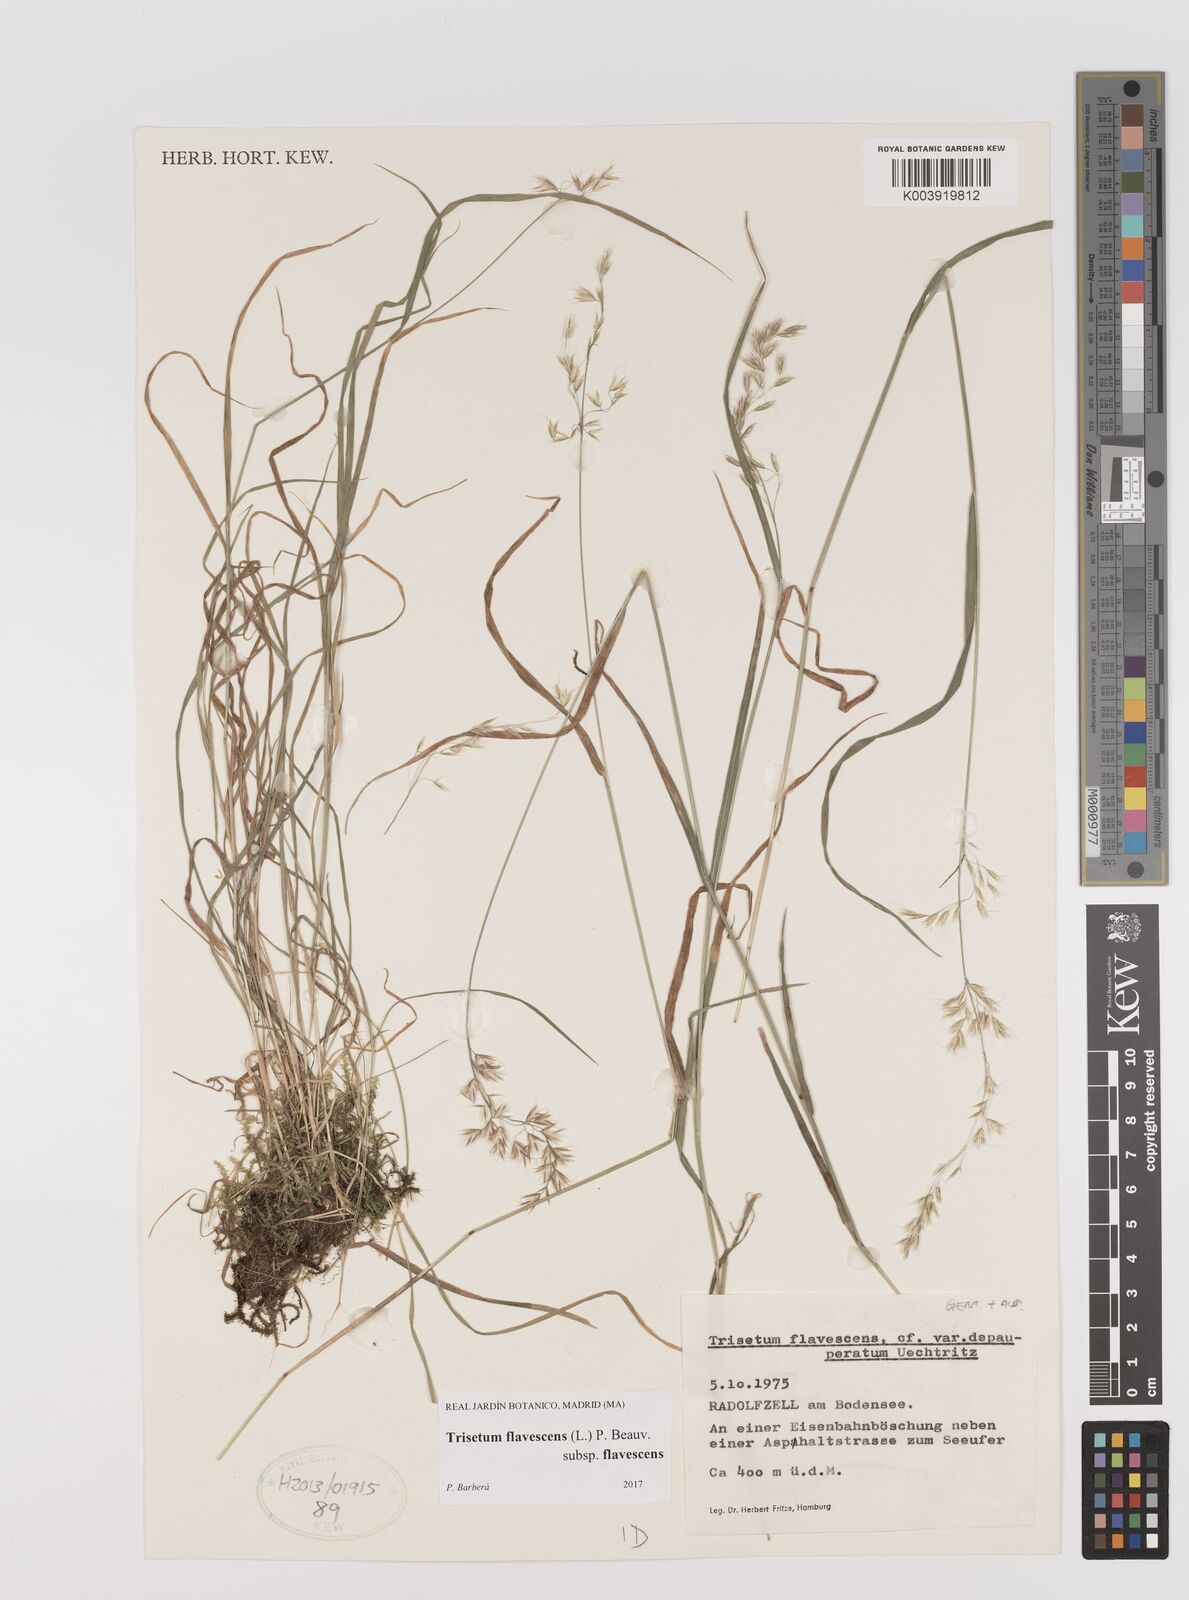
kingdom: Plantae
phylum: Tracheophyta
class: Liliopsida
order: Poales
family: Poaceae
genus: Trisetum
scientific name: Trisetum flavescens
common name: Yellow oat-grass
